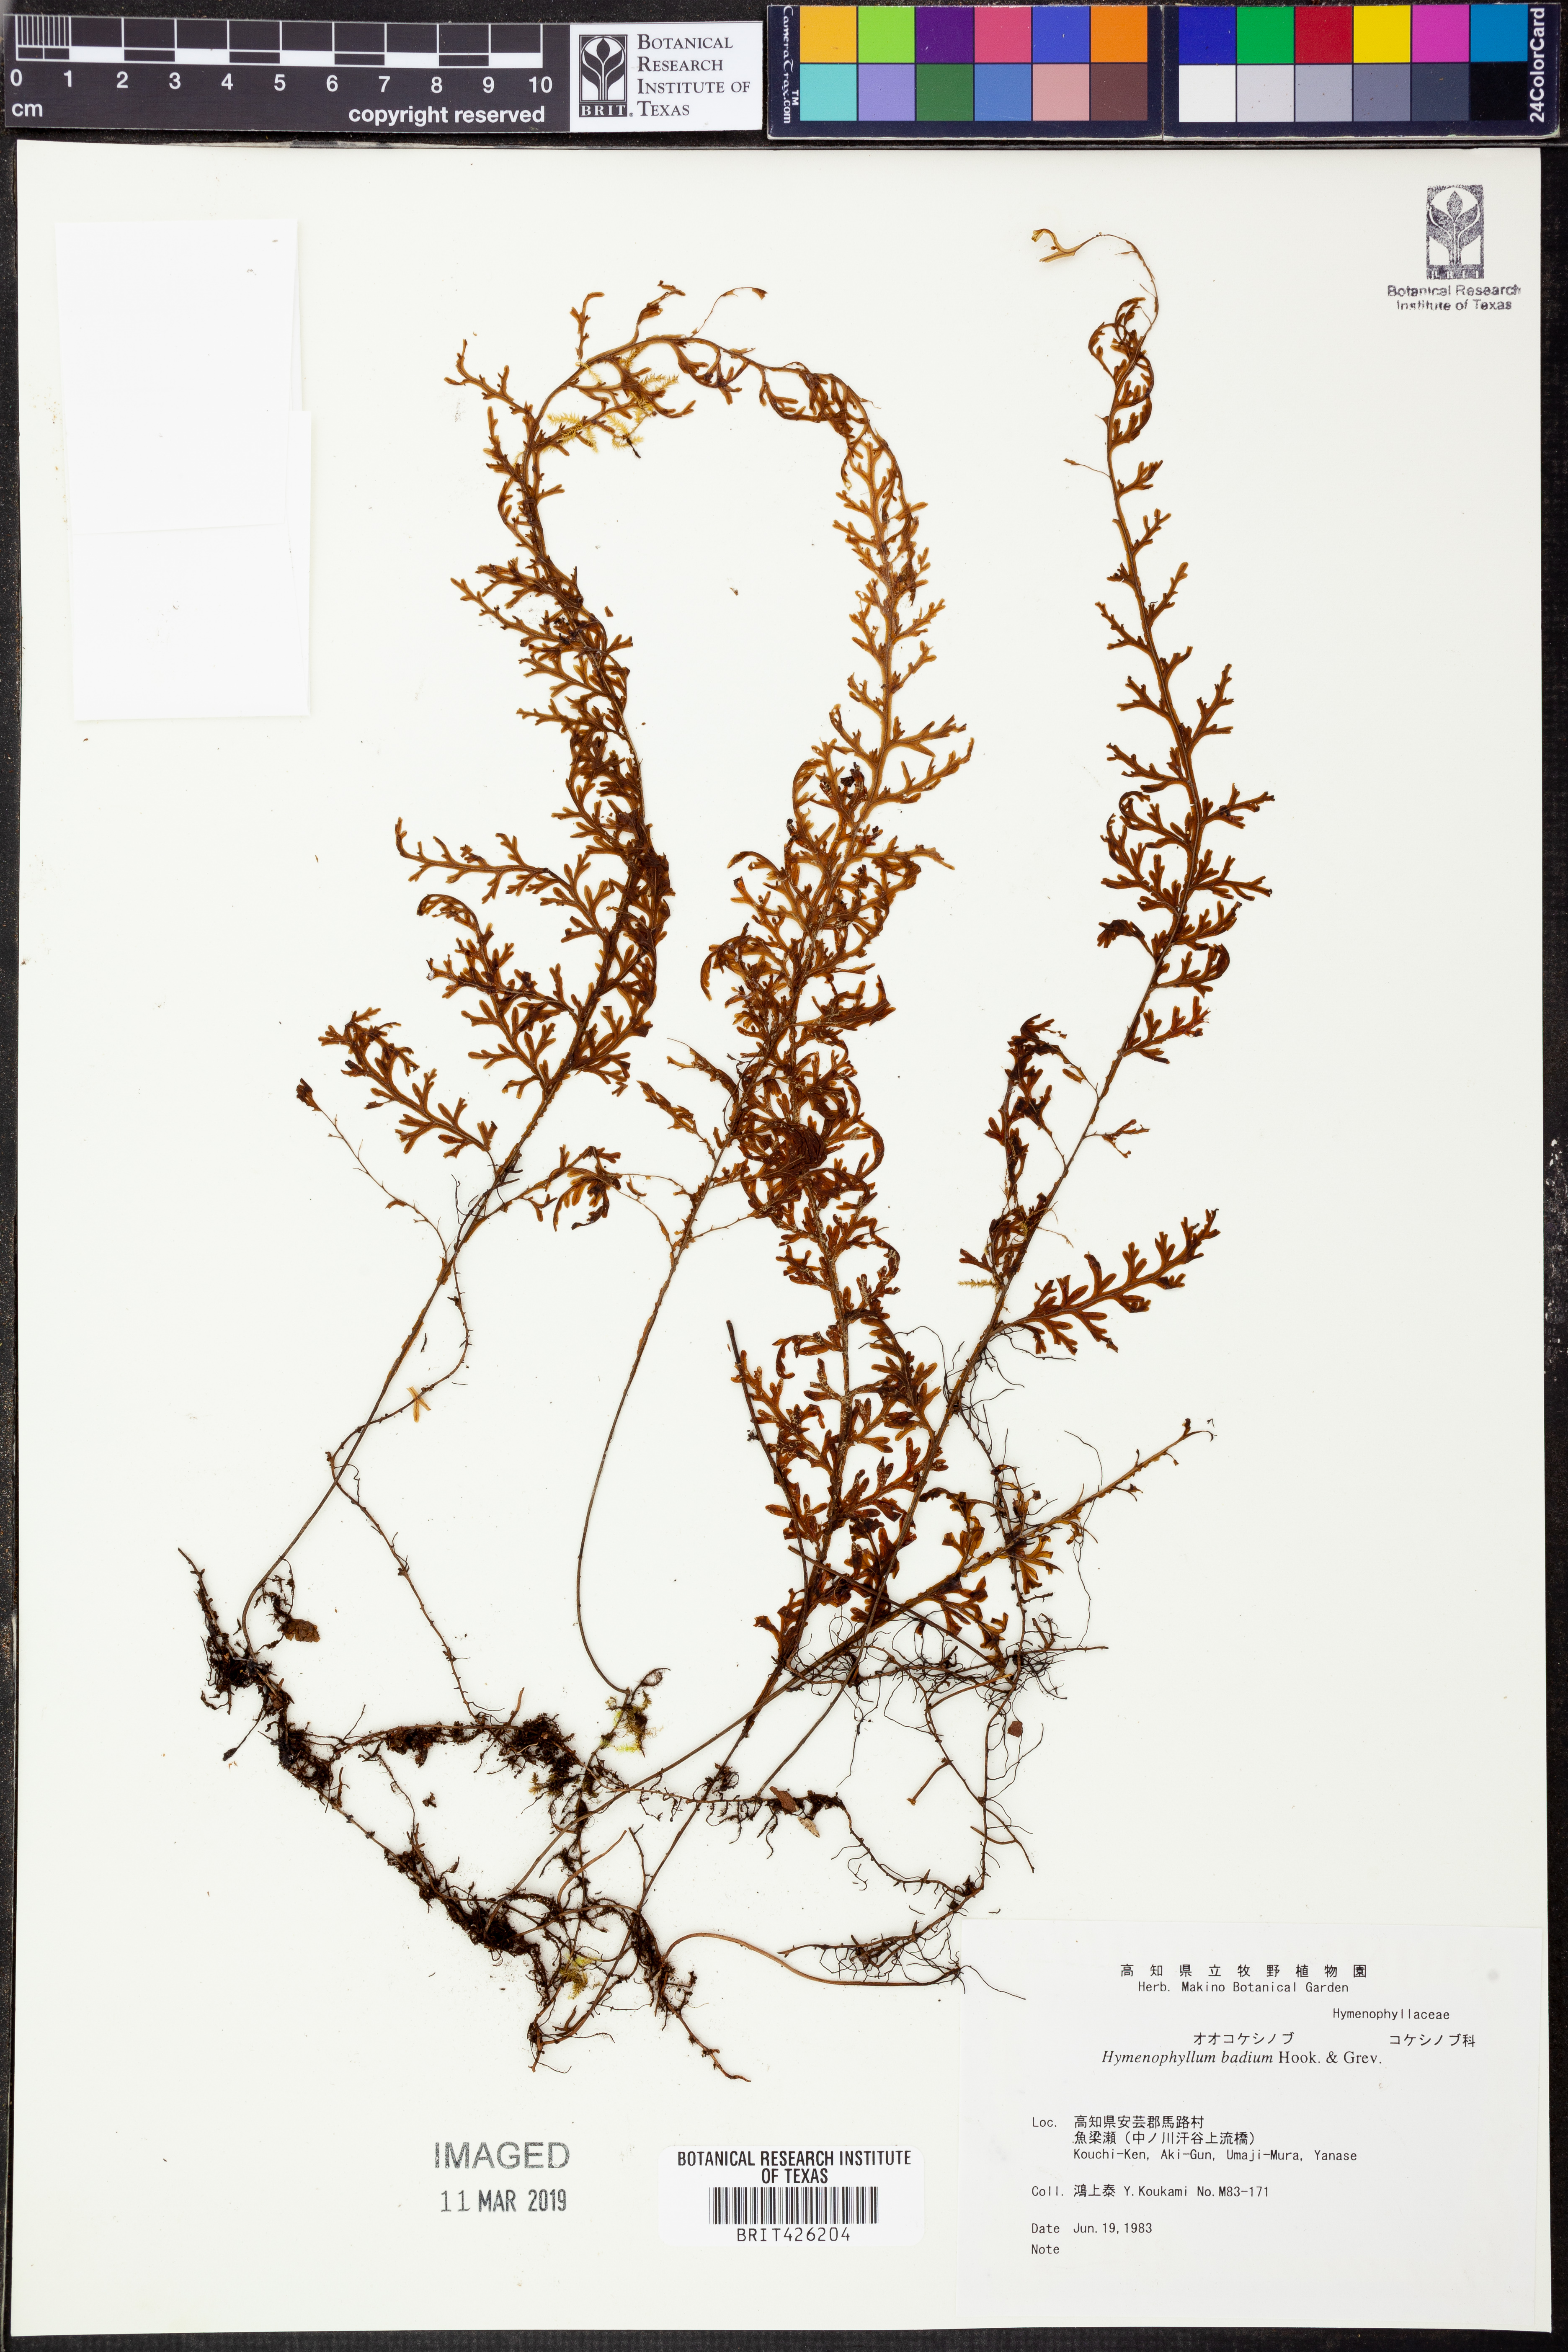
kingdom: Plantae
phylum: Tracheophyta
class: Polypodiopsida
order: Hymenophyllales
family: Hymenophyllaceae
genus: Hymenophyllum
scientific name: Hymenophyllum badium
